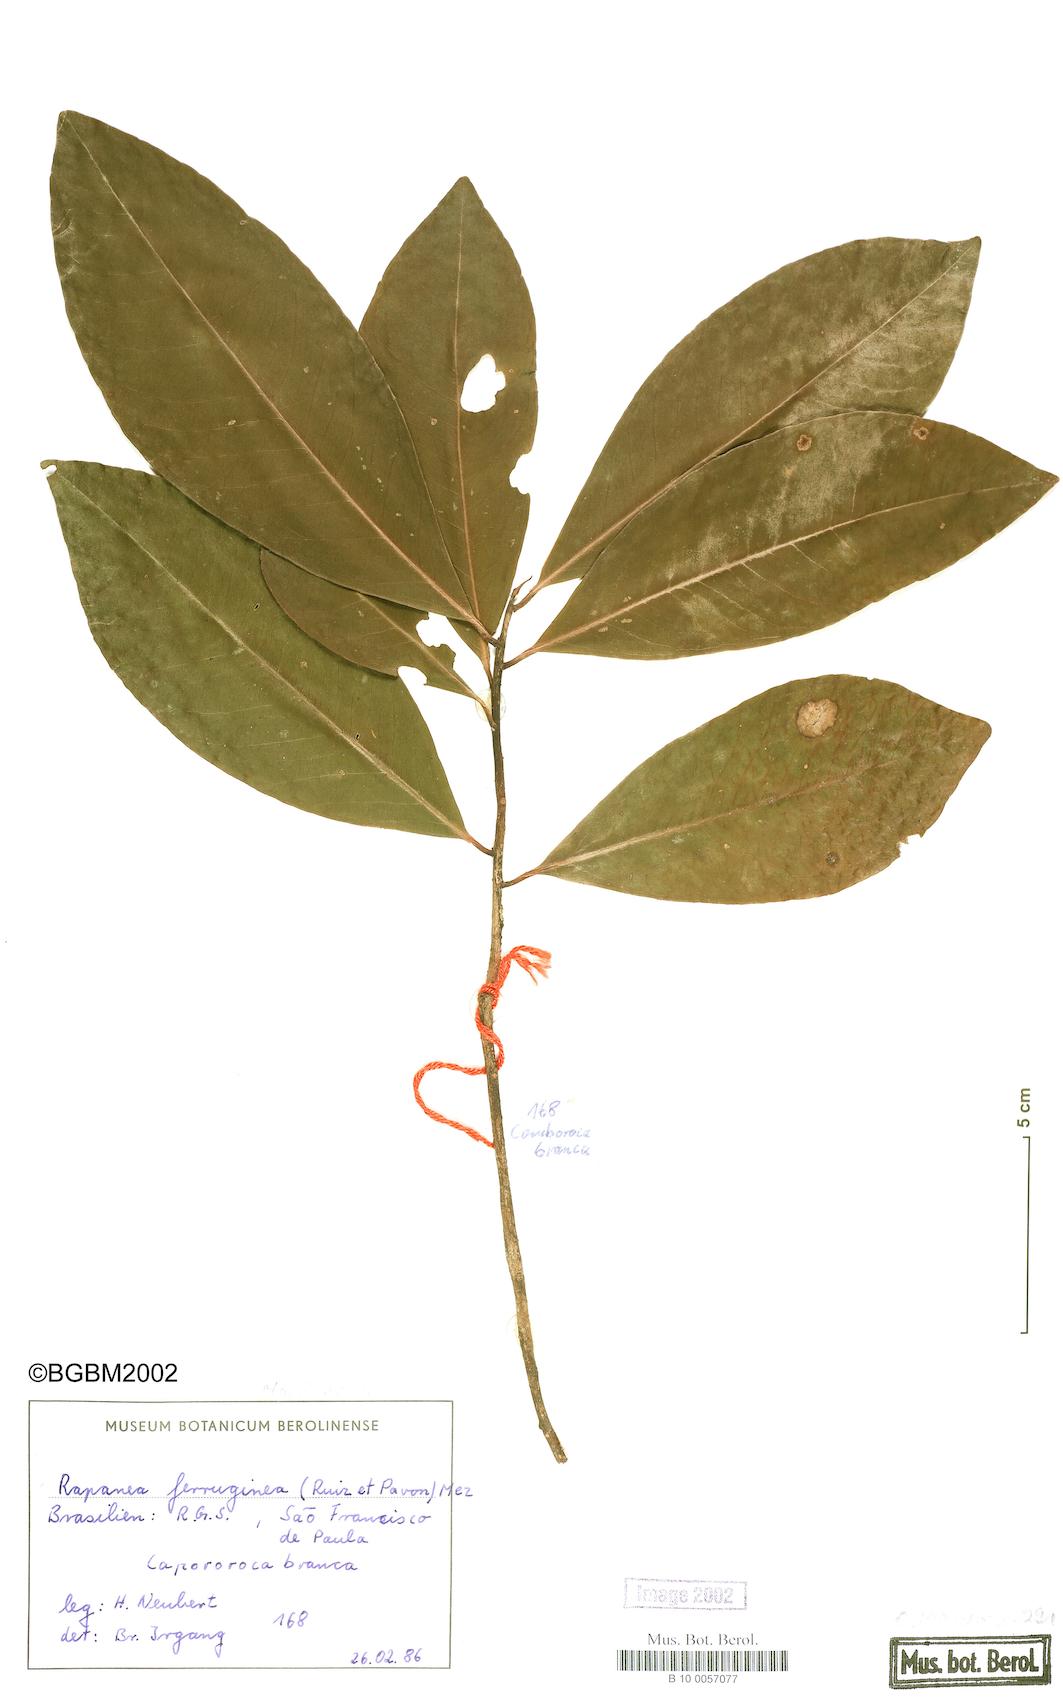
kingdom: Plantae
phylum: Tracheophyta
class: Magnoliopsida
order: Ericales
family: Primulaceae
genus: Myrsine
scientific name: Myrsine coriacea
